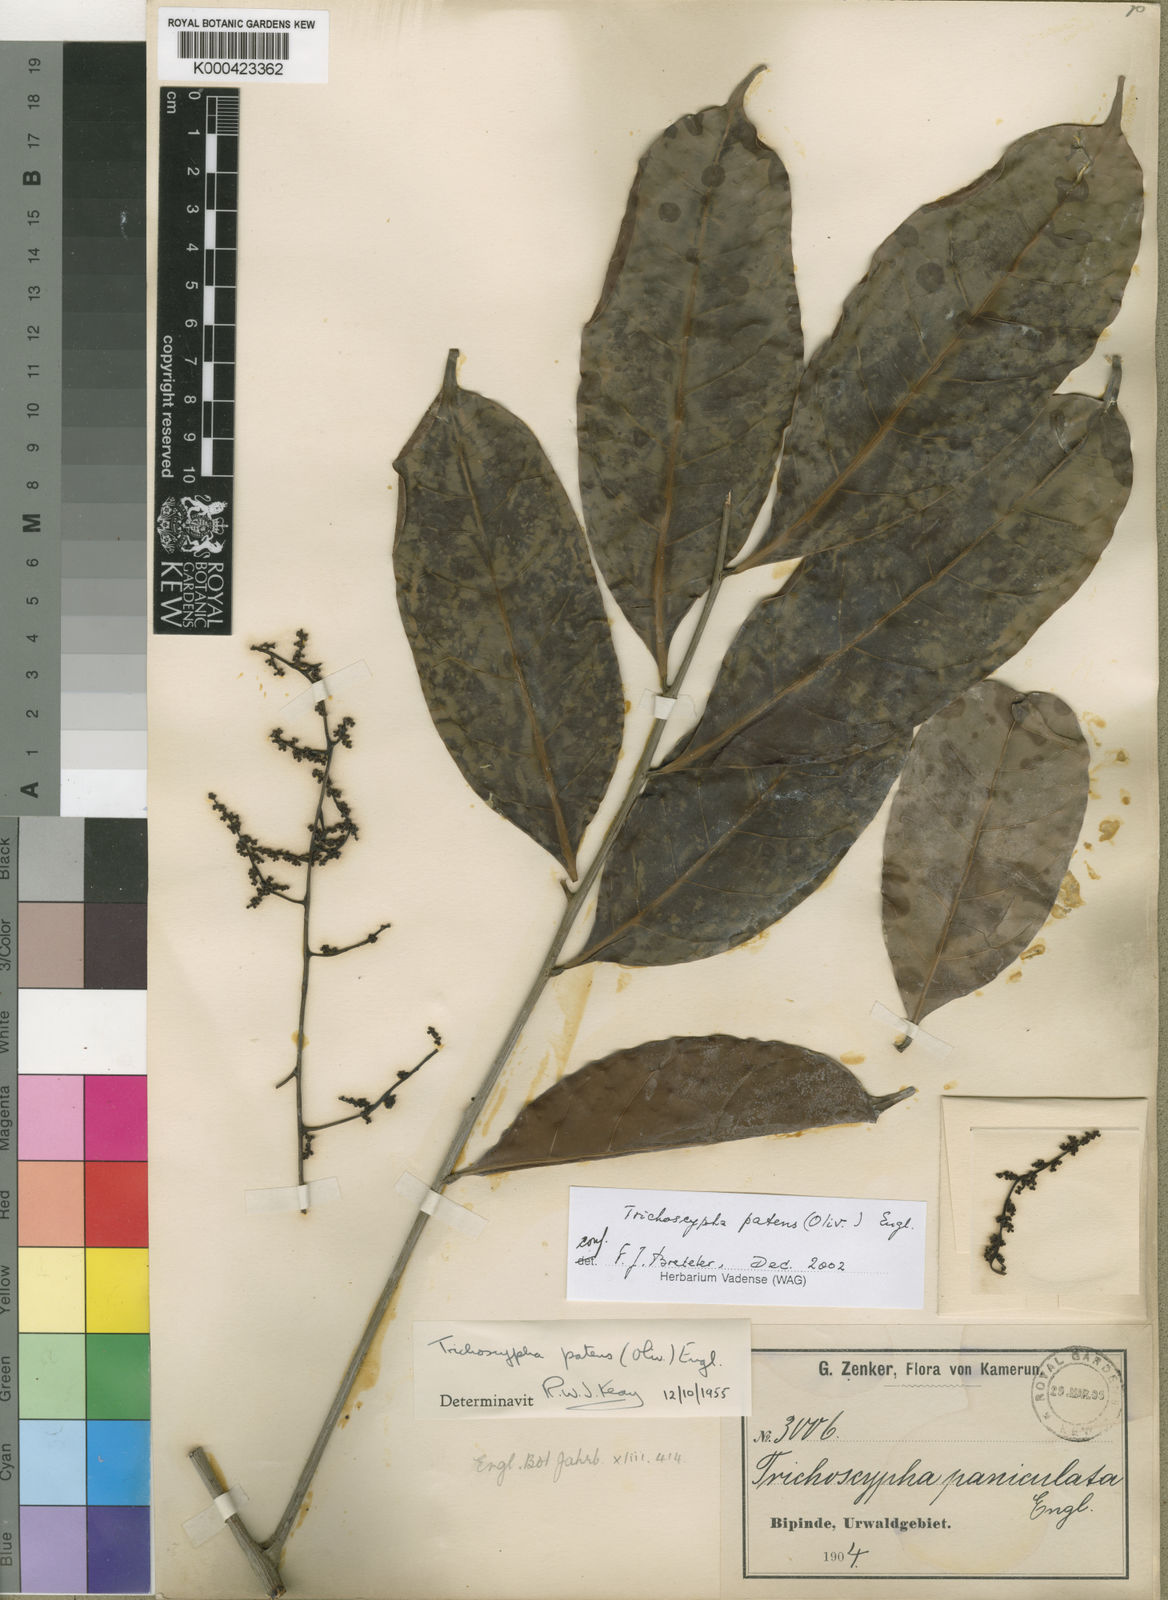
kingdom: Plantae
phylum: Tracheophyta
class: Magnoliopsida
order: Sapindales
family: Anacardiaceae
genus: Trichoscypha
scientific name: Trichoscypha patens
